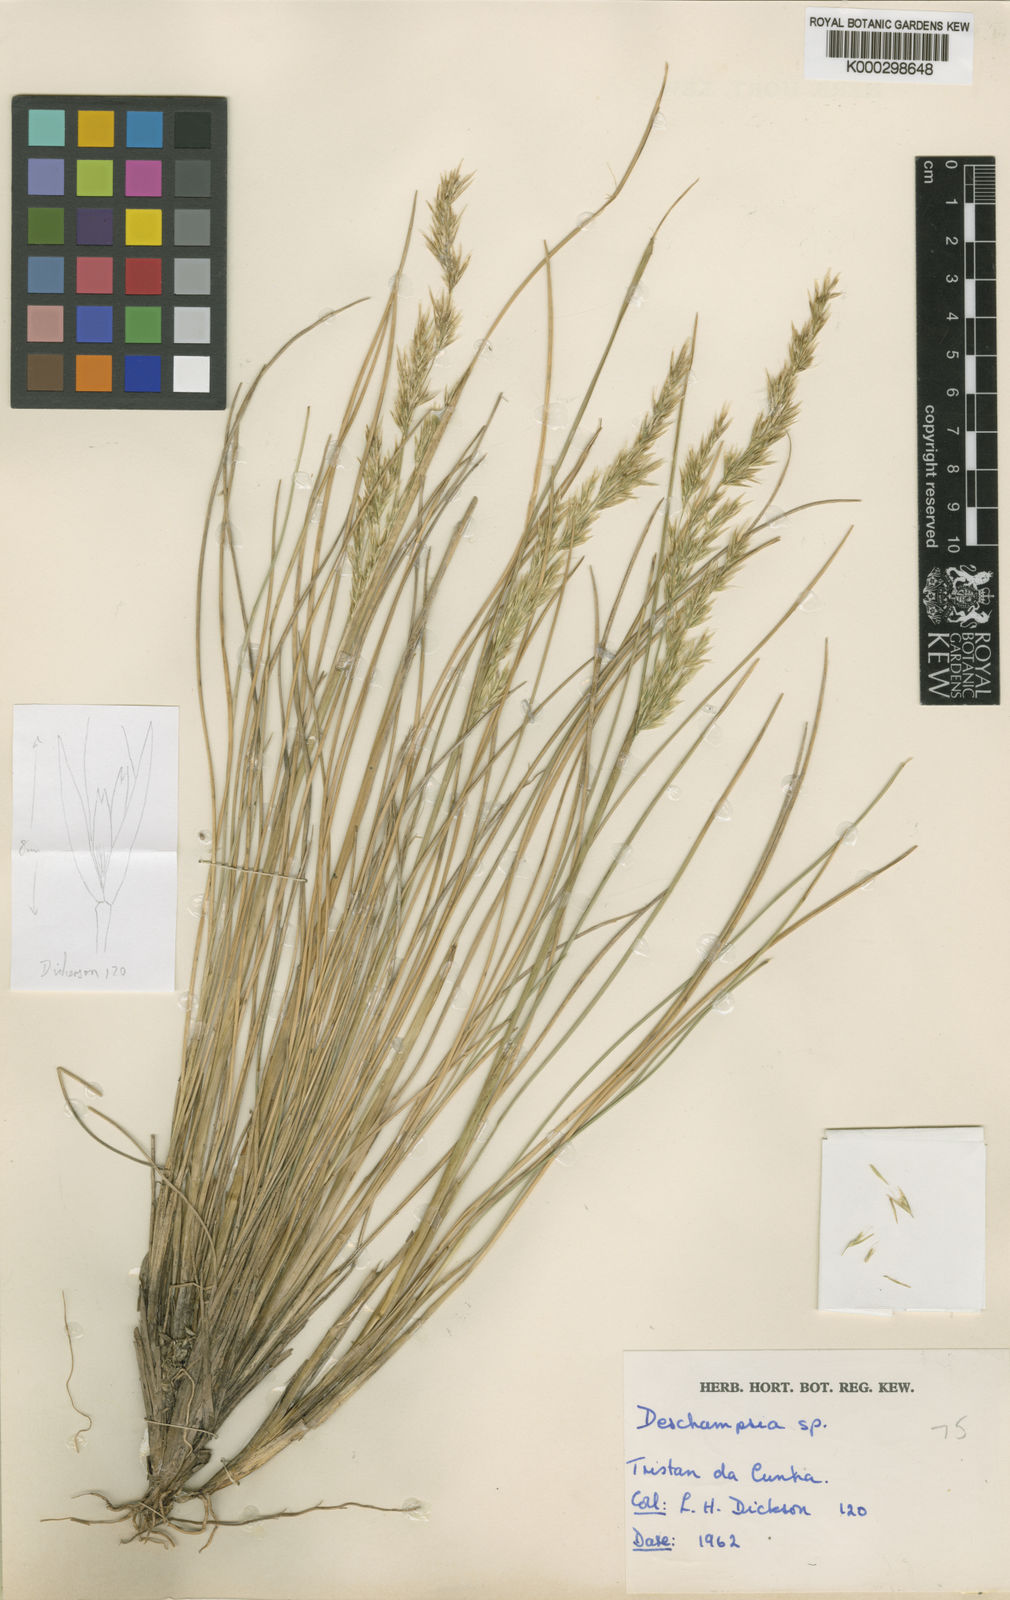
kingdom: Plantae
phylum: Tracheophyta
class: Liliopsida
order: Poales
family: Poaceae
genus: Deschampsia
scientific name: Deschampsia
